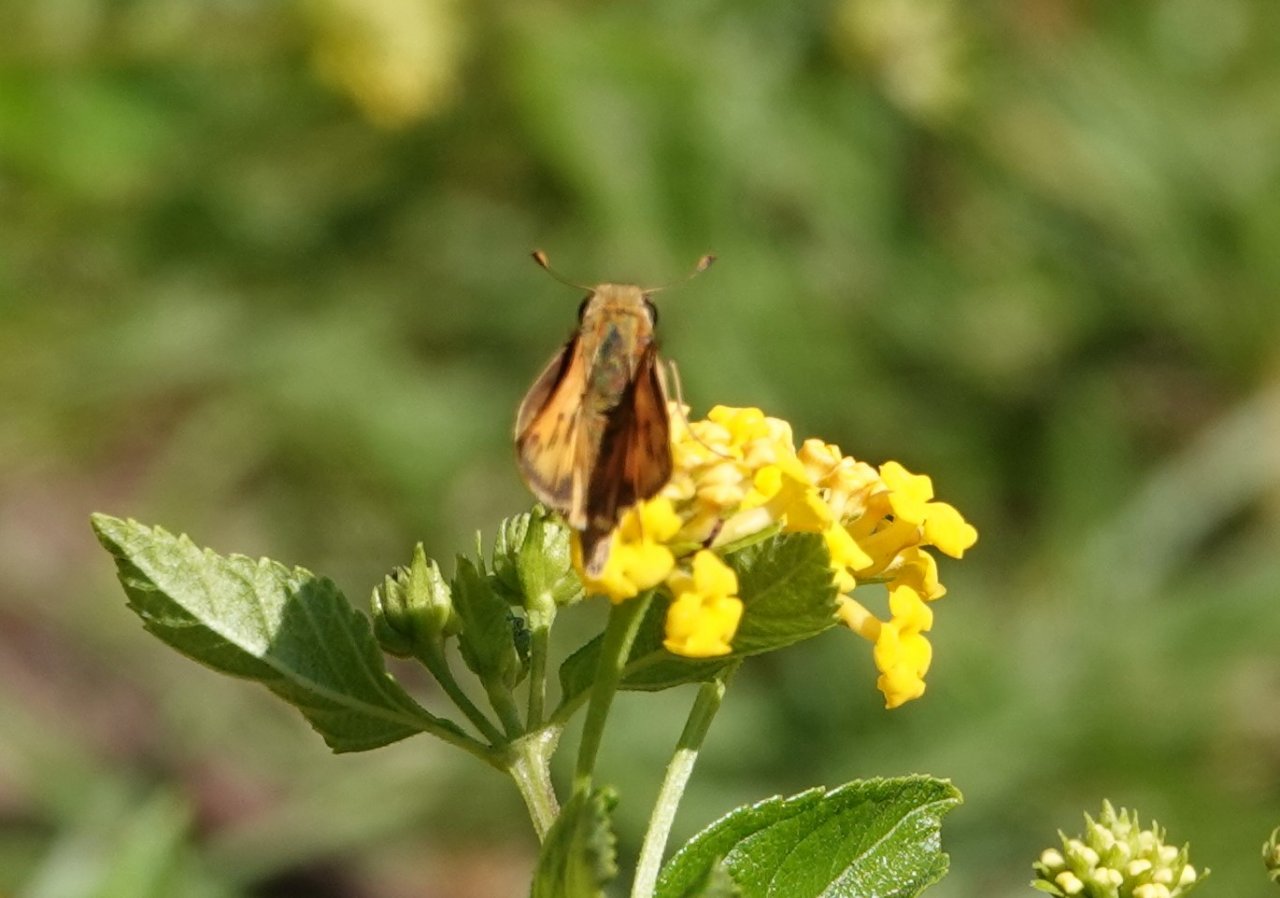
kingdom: Animalia
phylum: Arthropoda
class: Insecta
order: Lepidoptera
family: Hesperiidae
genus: Hylephila
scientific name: Hylephila phyleus
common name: Fiery Skipper
